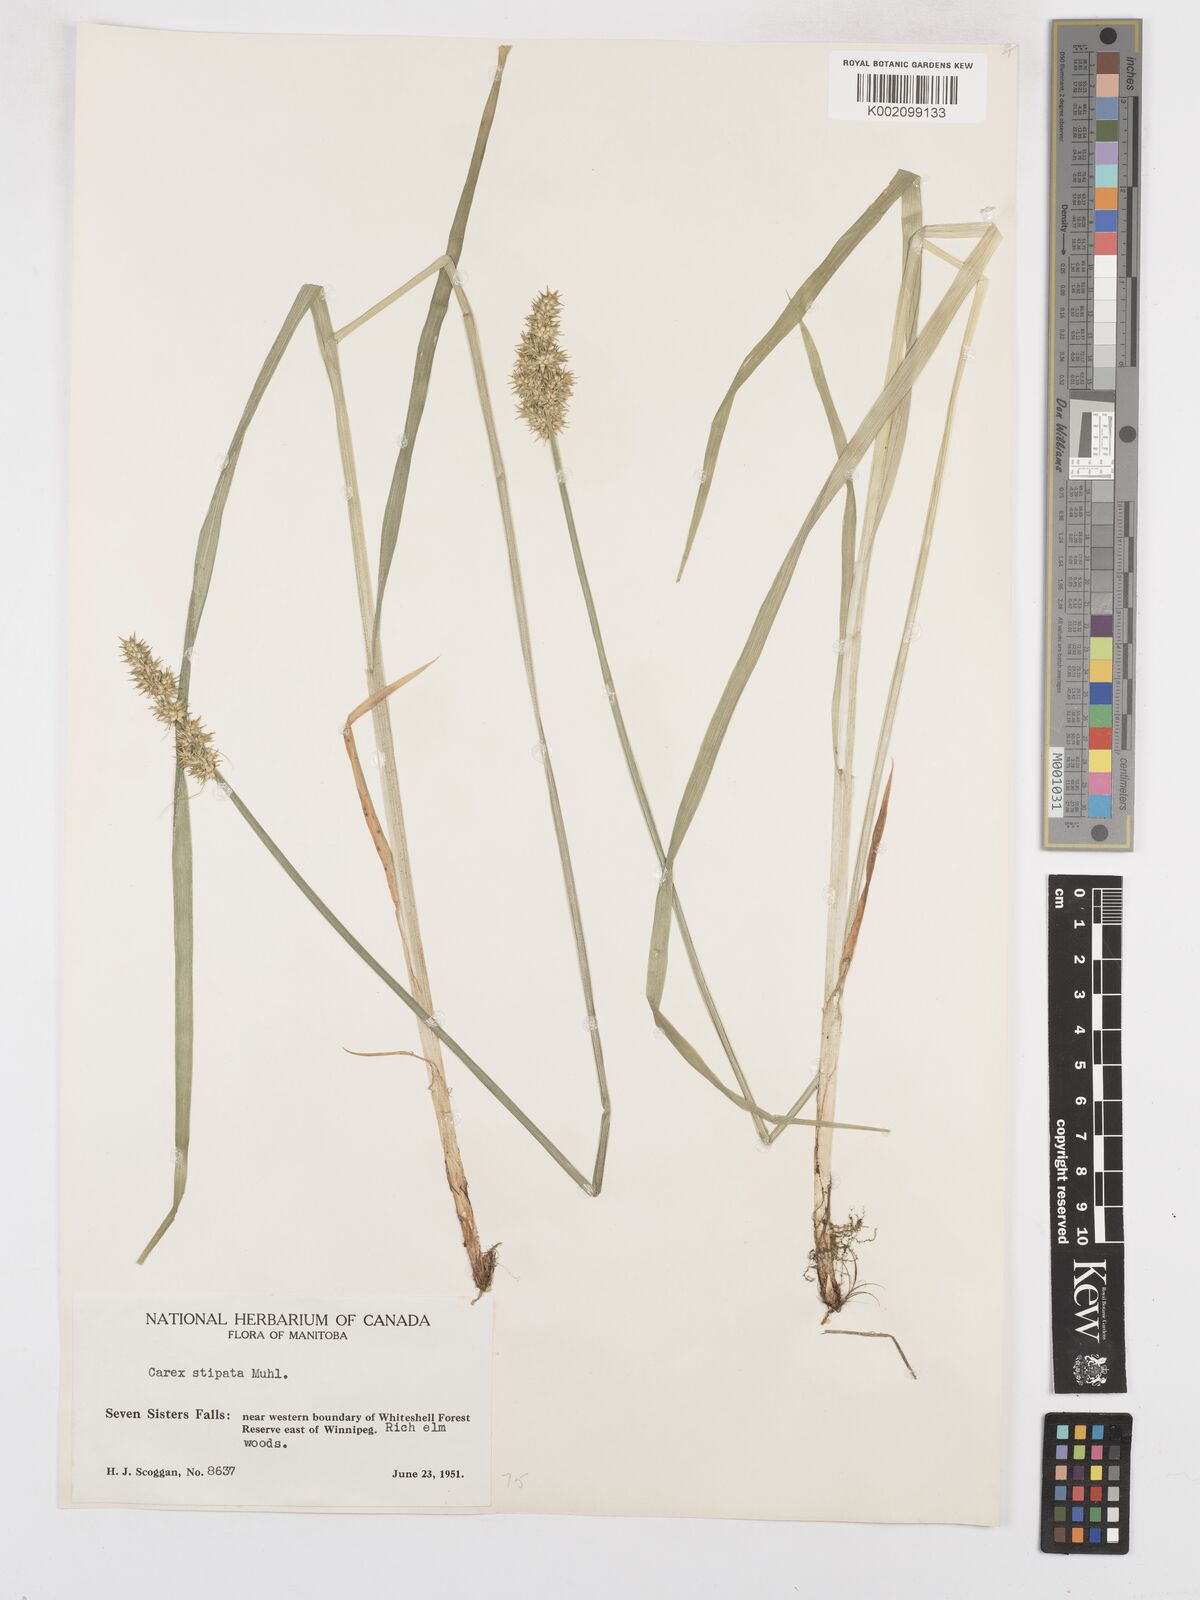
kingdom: Plantae
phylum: Tracheophyta
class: Liliopsida
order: Poales
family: Cyperaceae
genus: Carex
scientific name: Carex stipata
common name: Awl-fruited sedge
